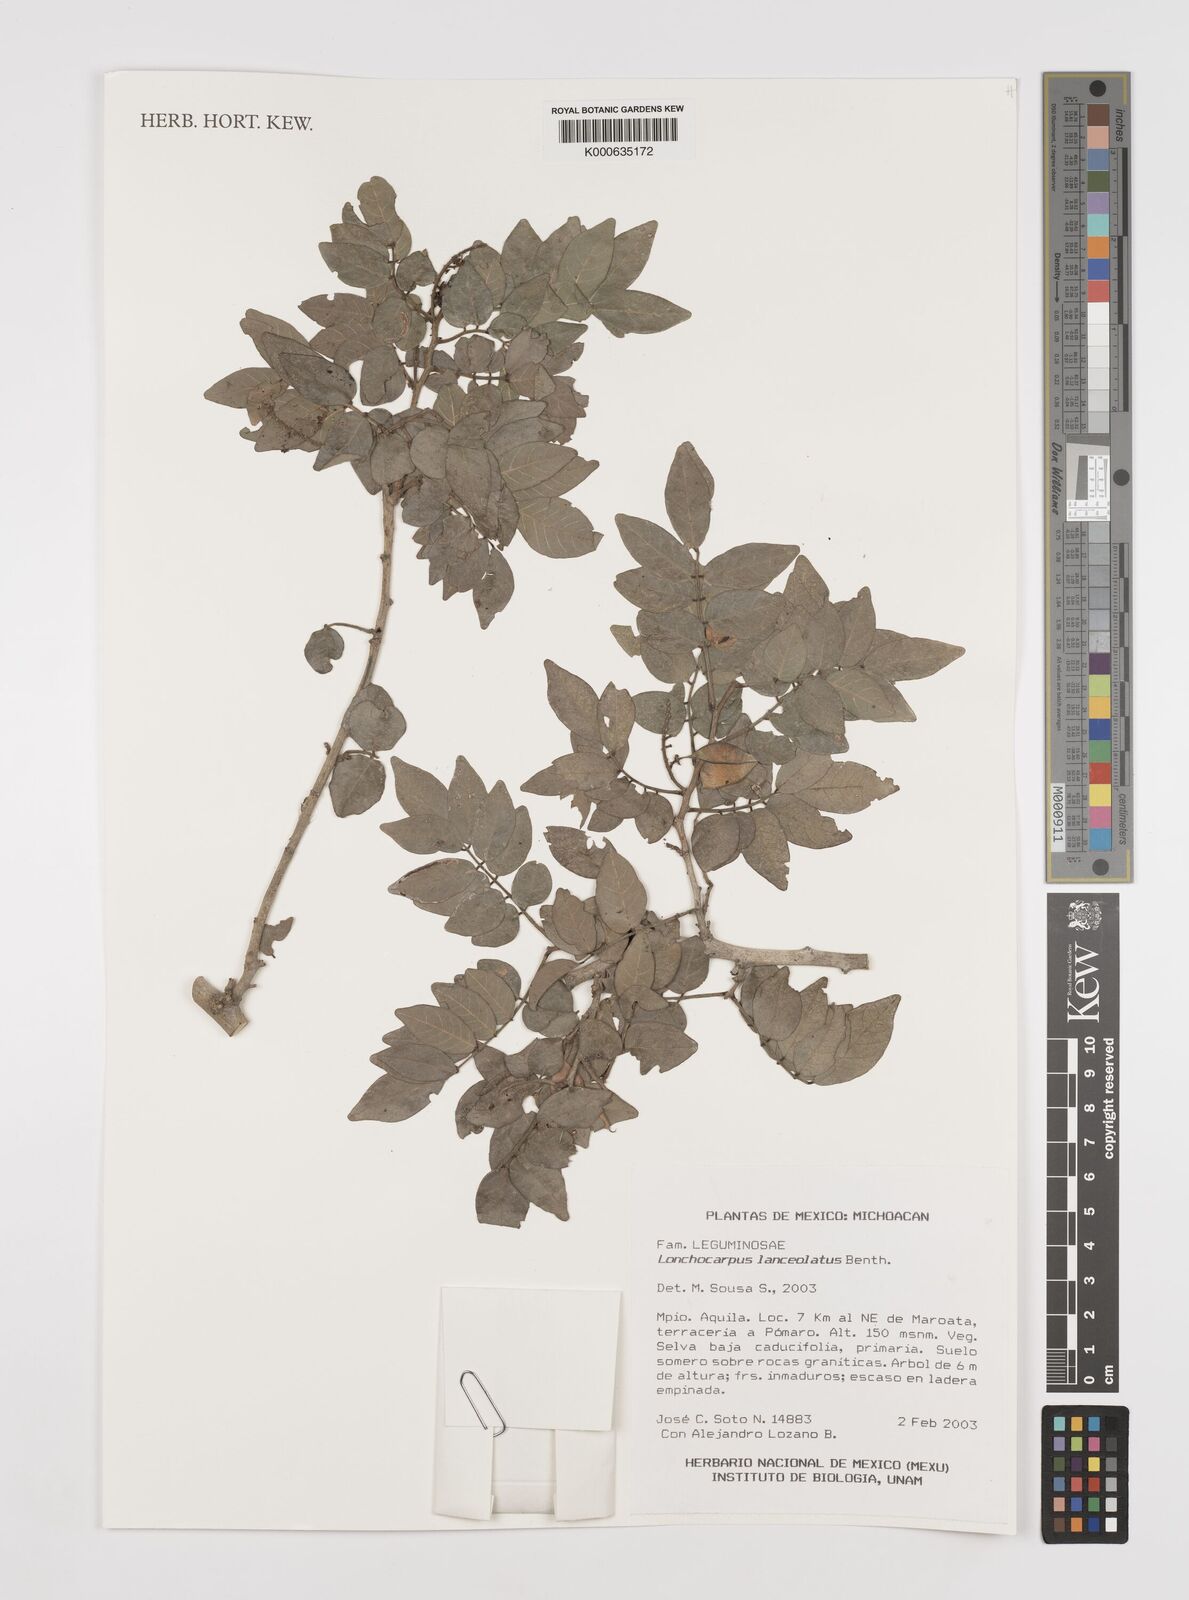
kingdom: Plantae
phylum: Tracheophyta
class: Magnoliopsida
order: Fabales
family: Fabaceae
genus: Lonchocarpus
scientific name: Lonchocarpus lanceolatus
